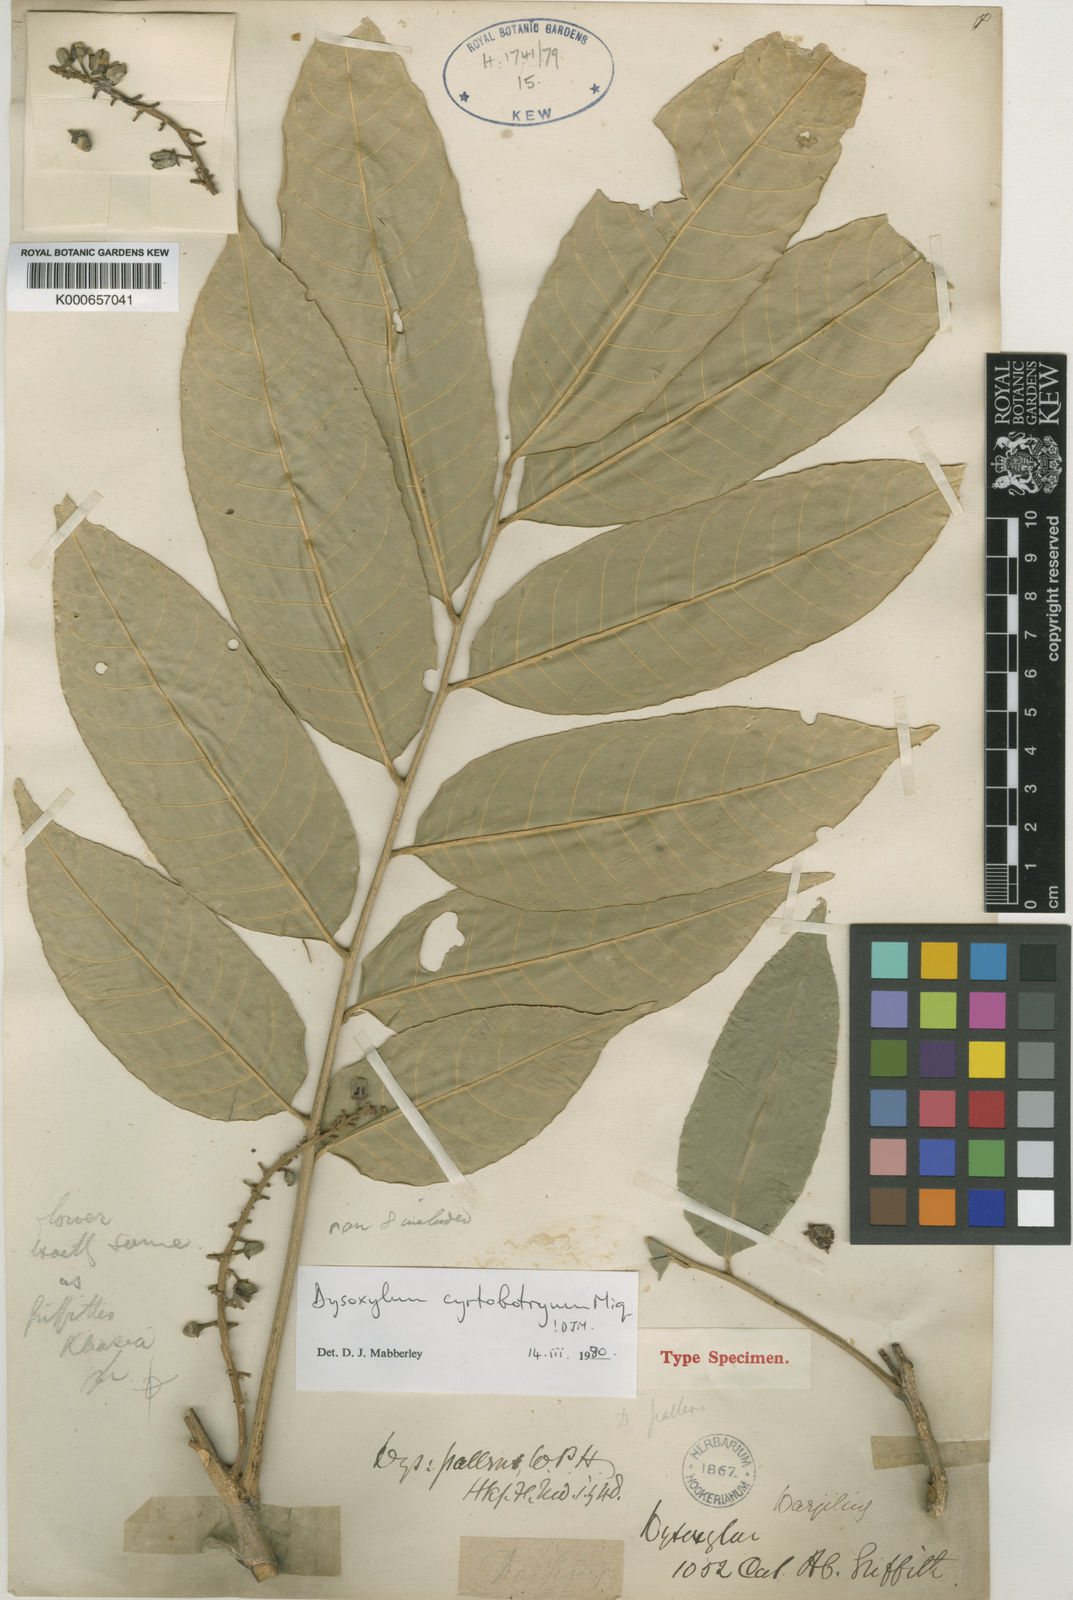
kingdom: Plantae
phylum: Tracheophyta
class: Magnoliopsida
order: Sapindales
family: Meliaceae
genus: Dysoxylum
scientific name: Dysoxylum cyrtobotryum
